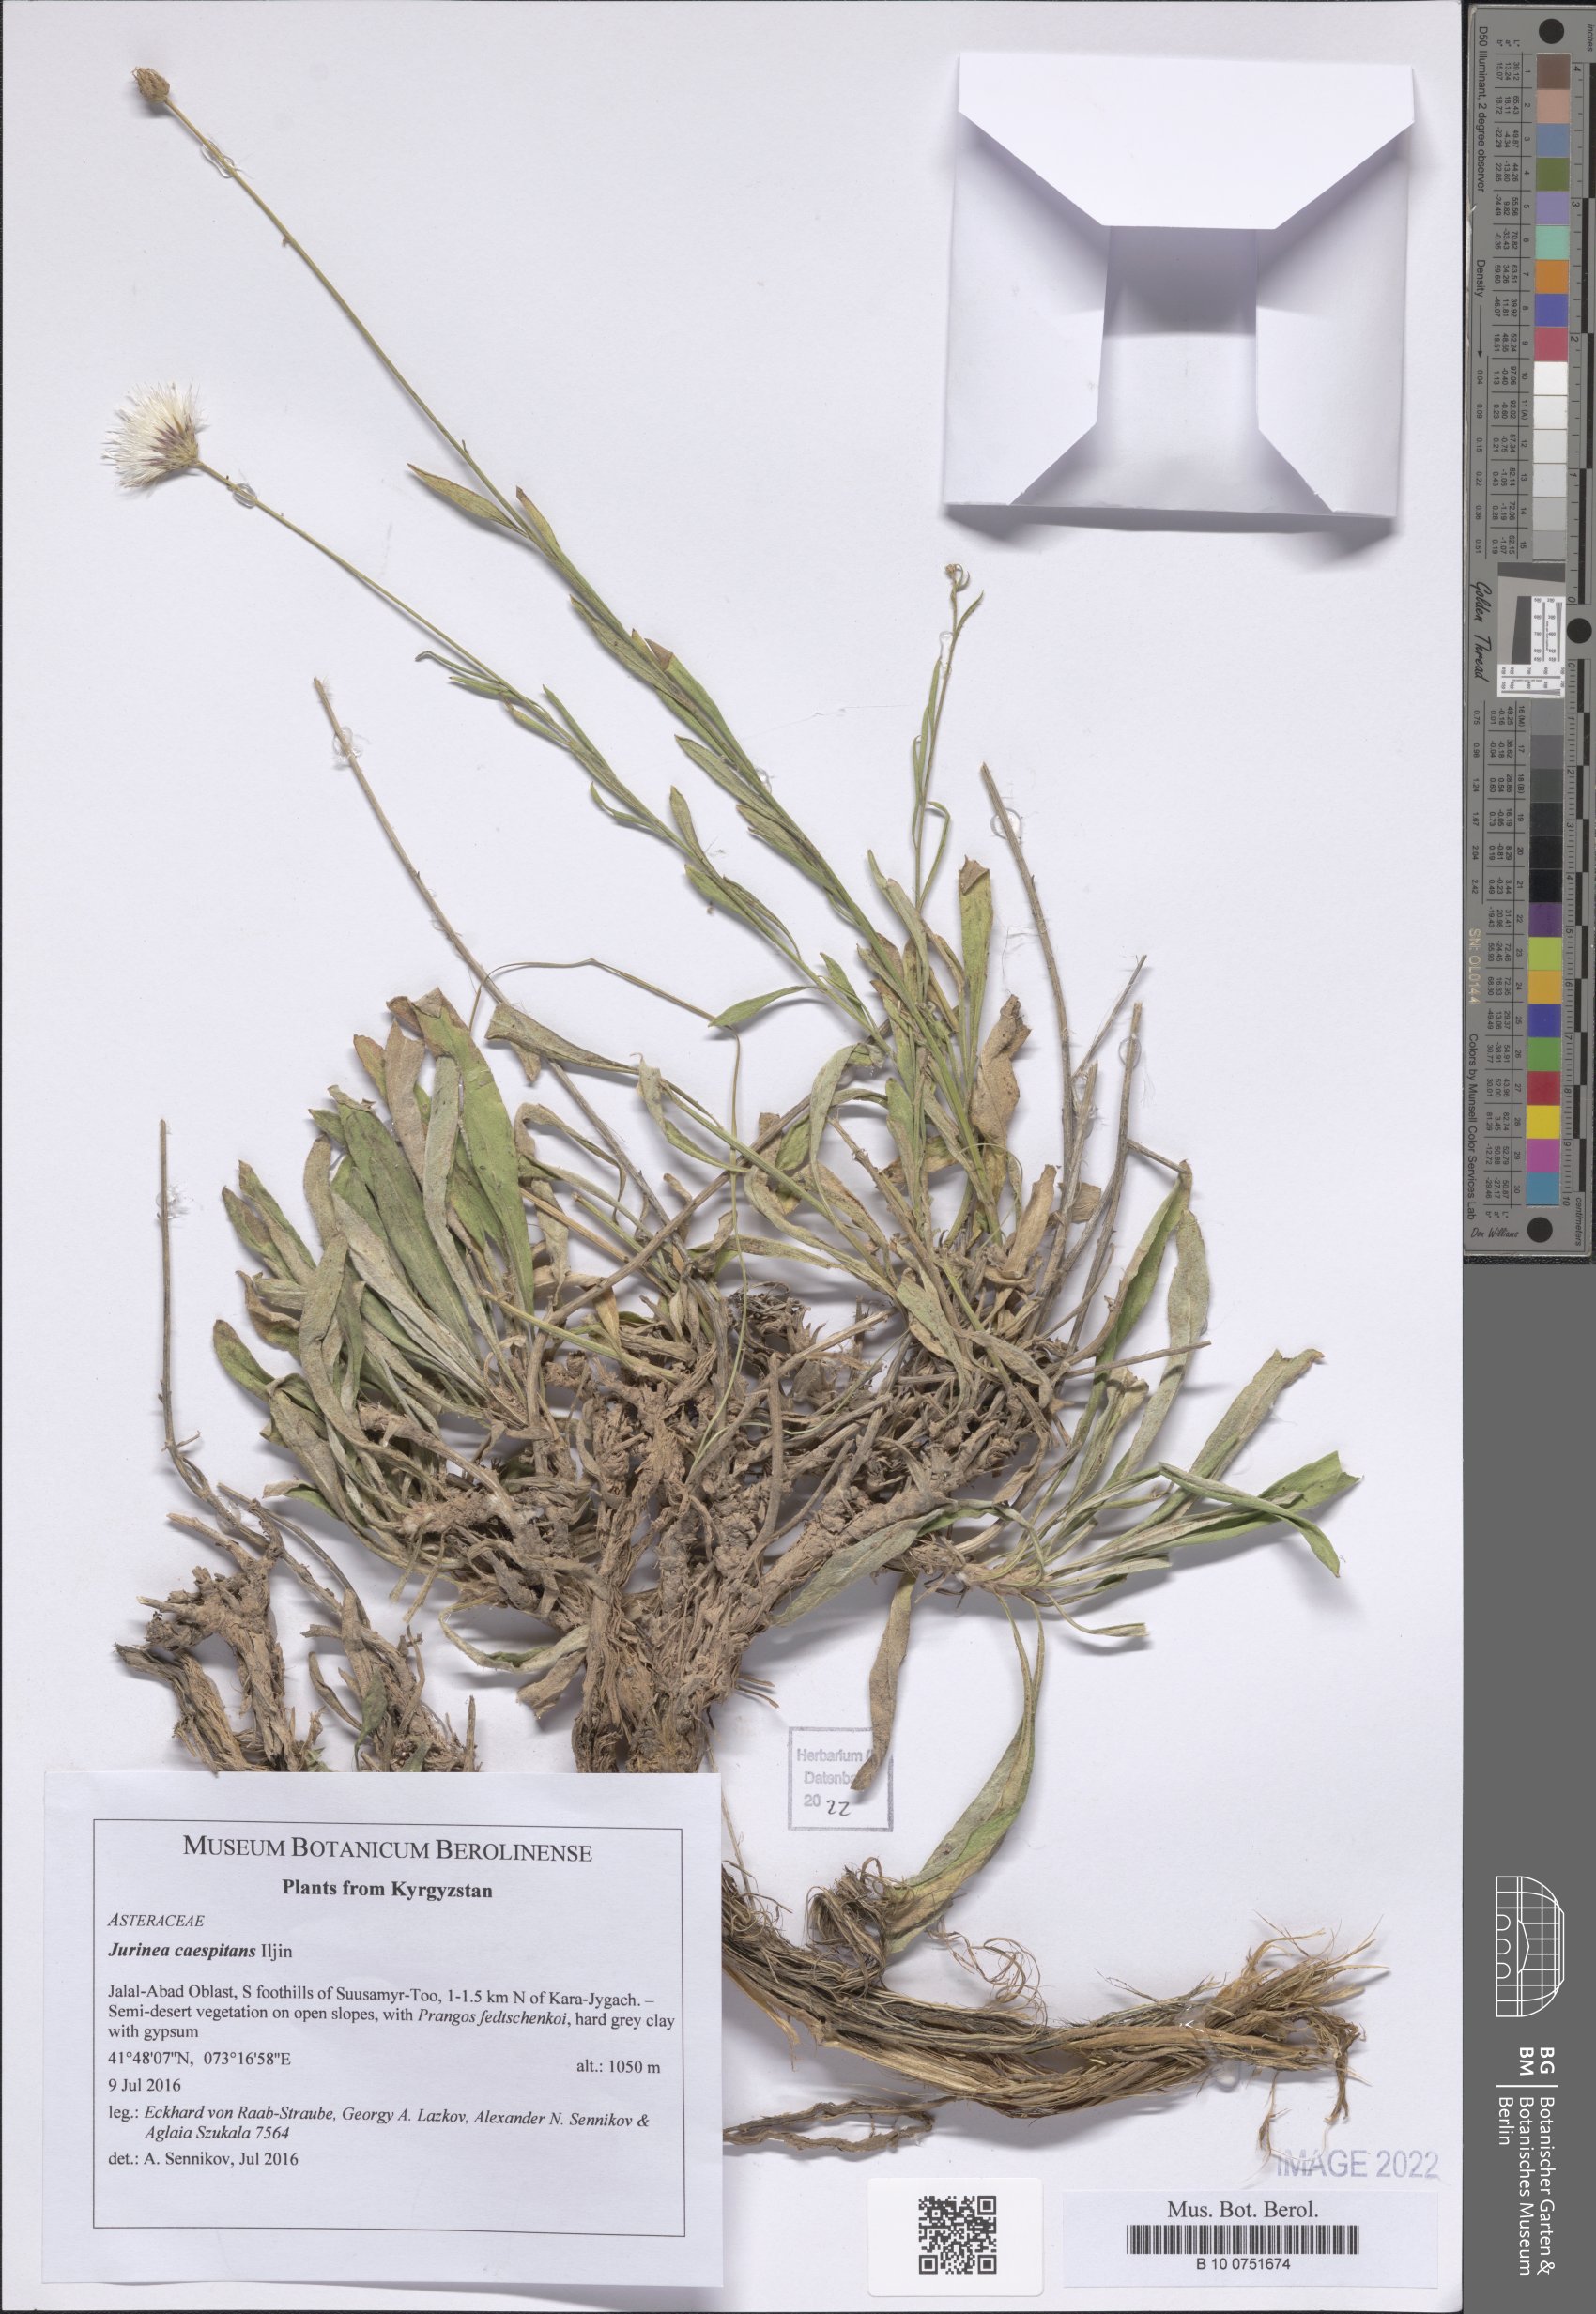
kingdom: Plantae
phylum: Tracheophyta
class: Magnoliopsida
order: Asterales
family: Asteraceae
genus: Jurinea
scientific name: Jurinea caespitans
